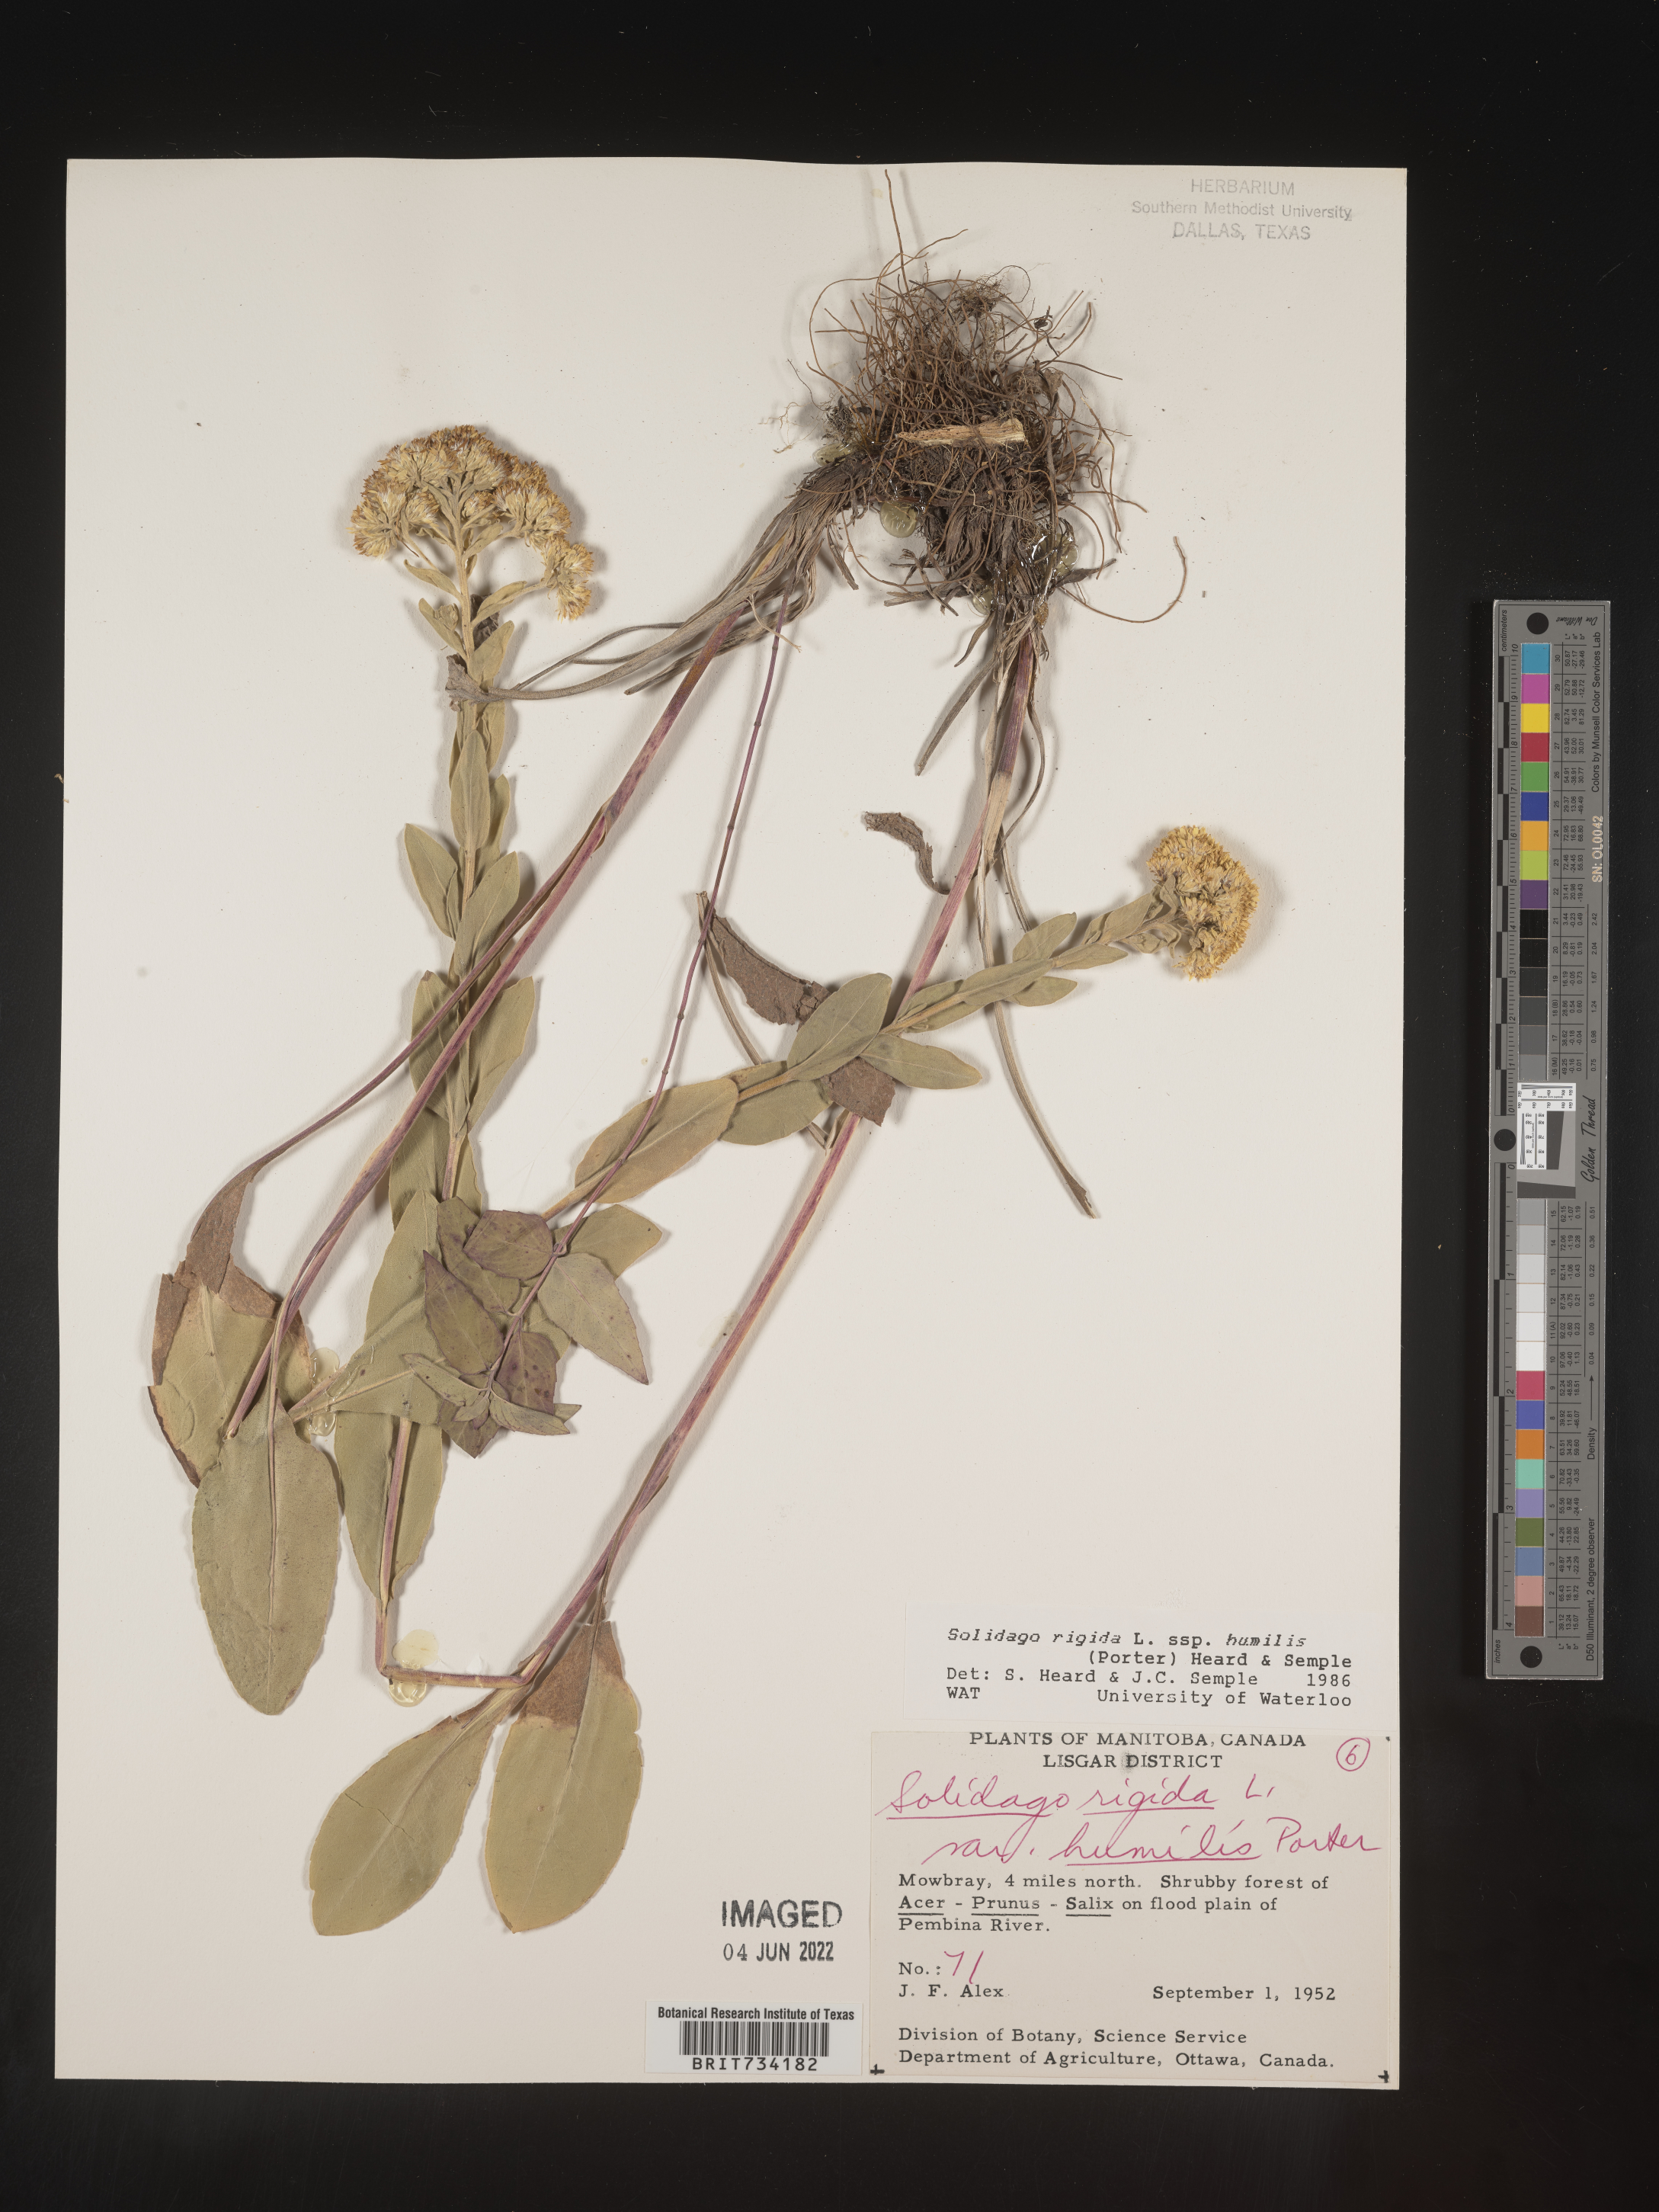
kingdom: Plantae
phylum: Tracheophyta
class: Magnoliopsida
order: Asterales
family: Asteraceae
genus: Solidago
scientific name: Solidago rigida
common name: Rigid goldenrod
